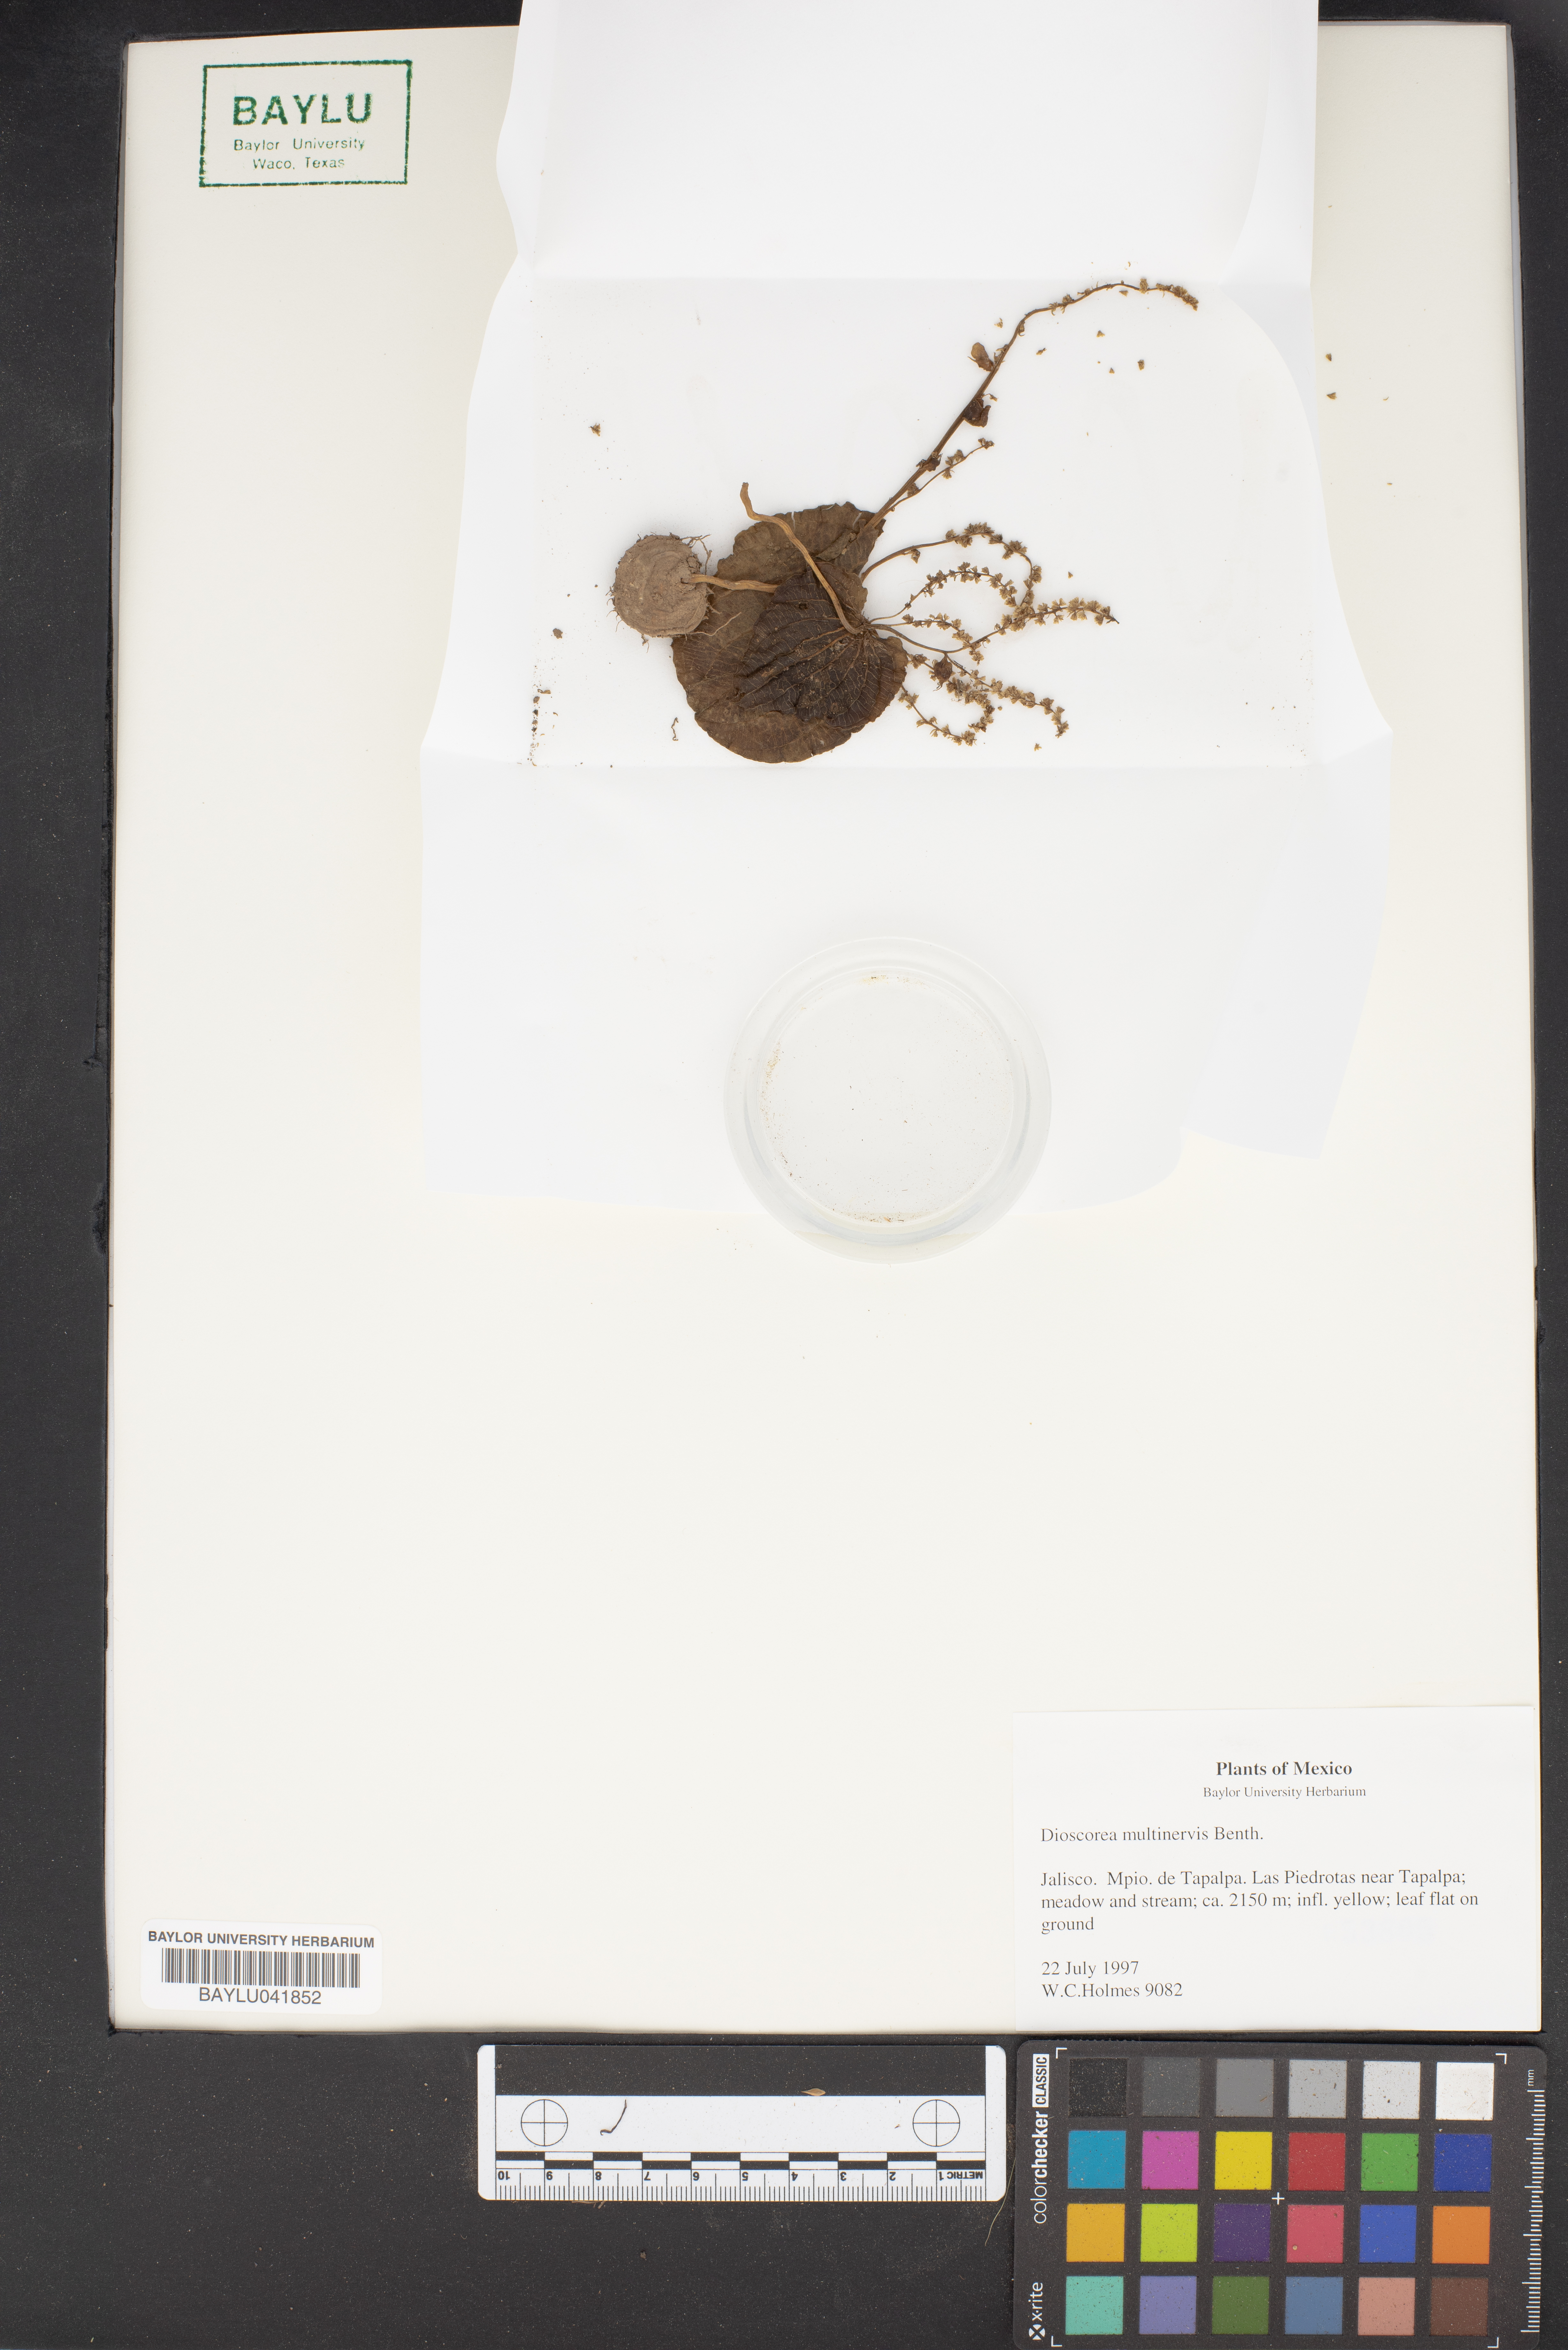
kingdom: Plantae
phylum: Tracheophyta
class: Liliopsida
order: Dioscoreales
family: Dioscoreaceae
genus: Dioscorea
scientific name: Dioscorea multinervis
